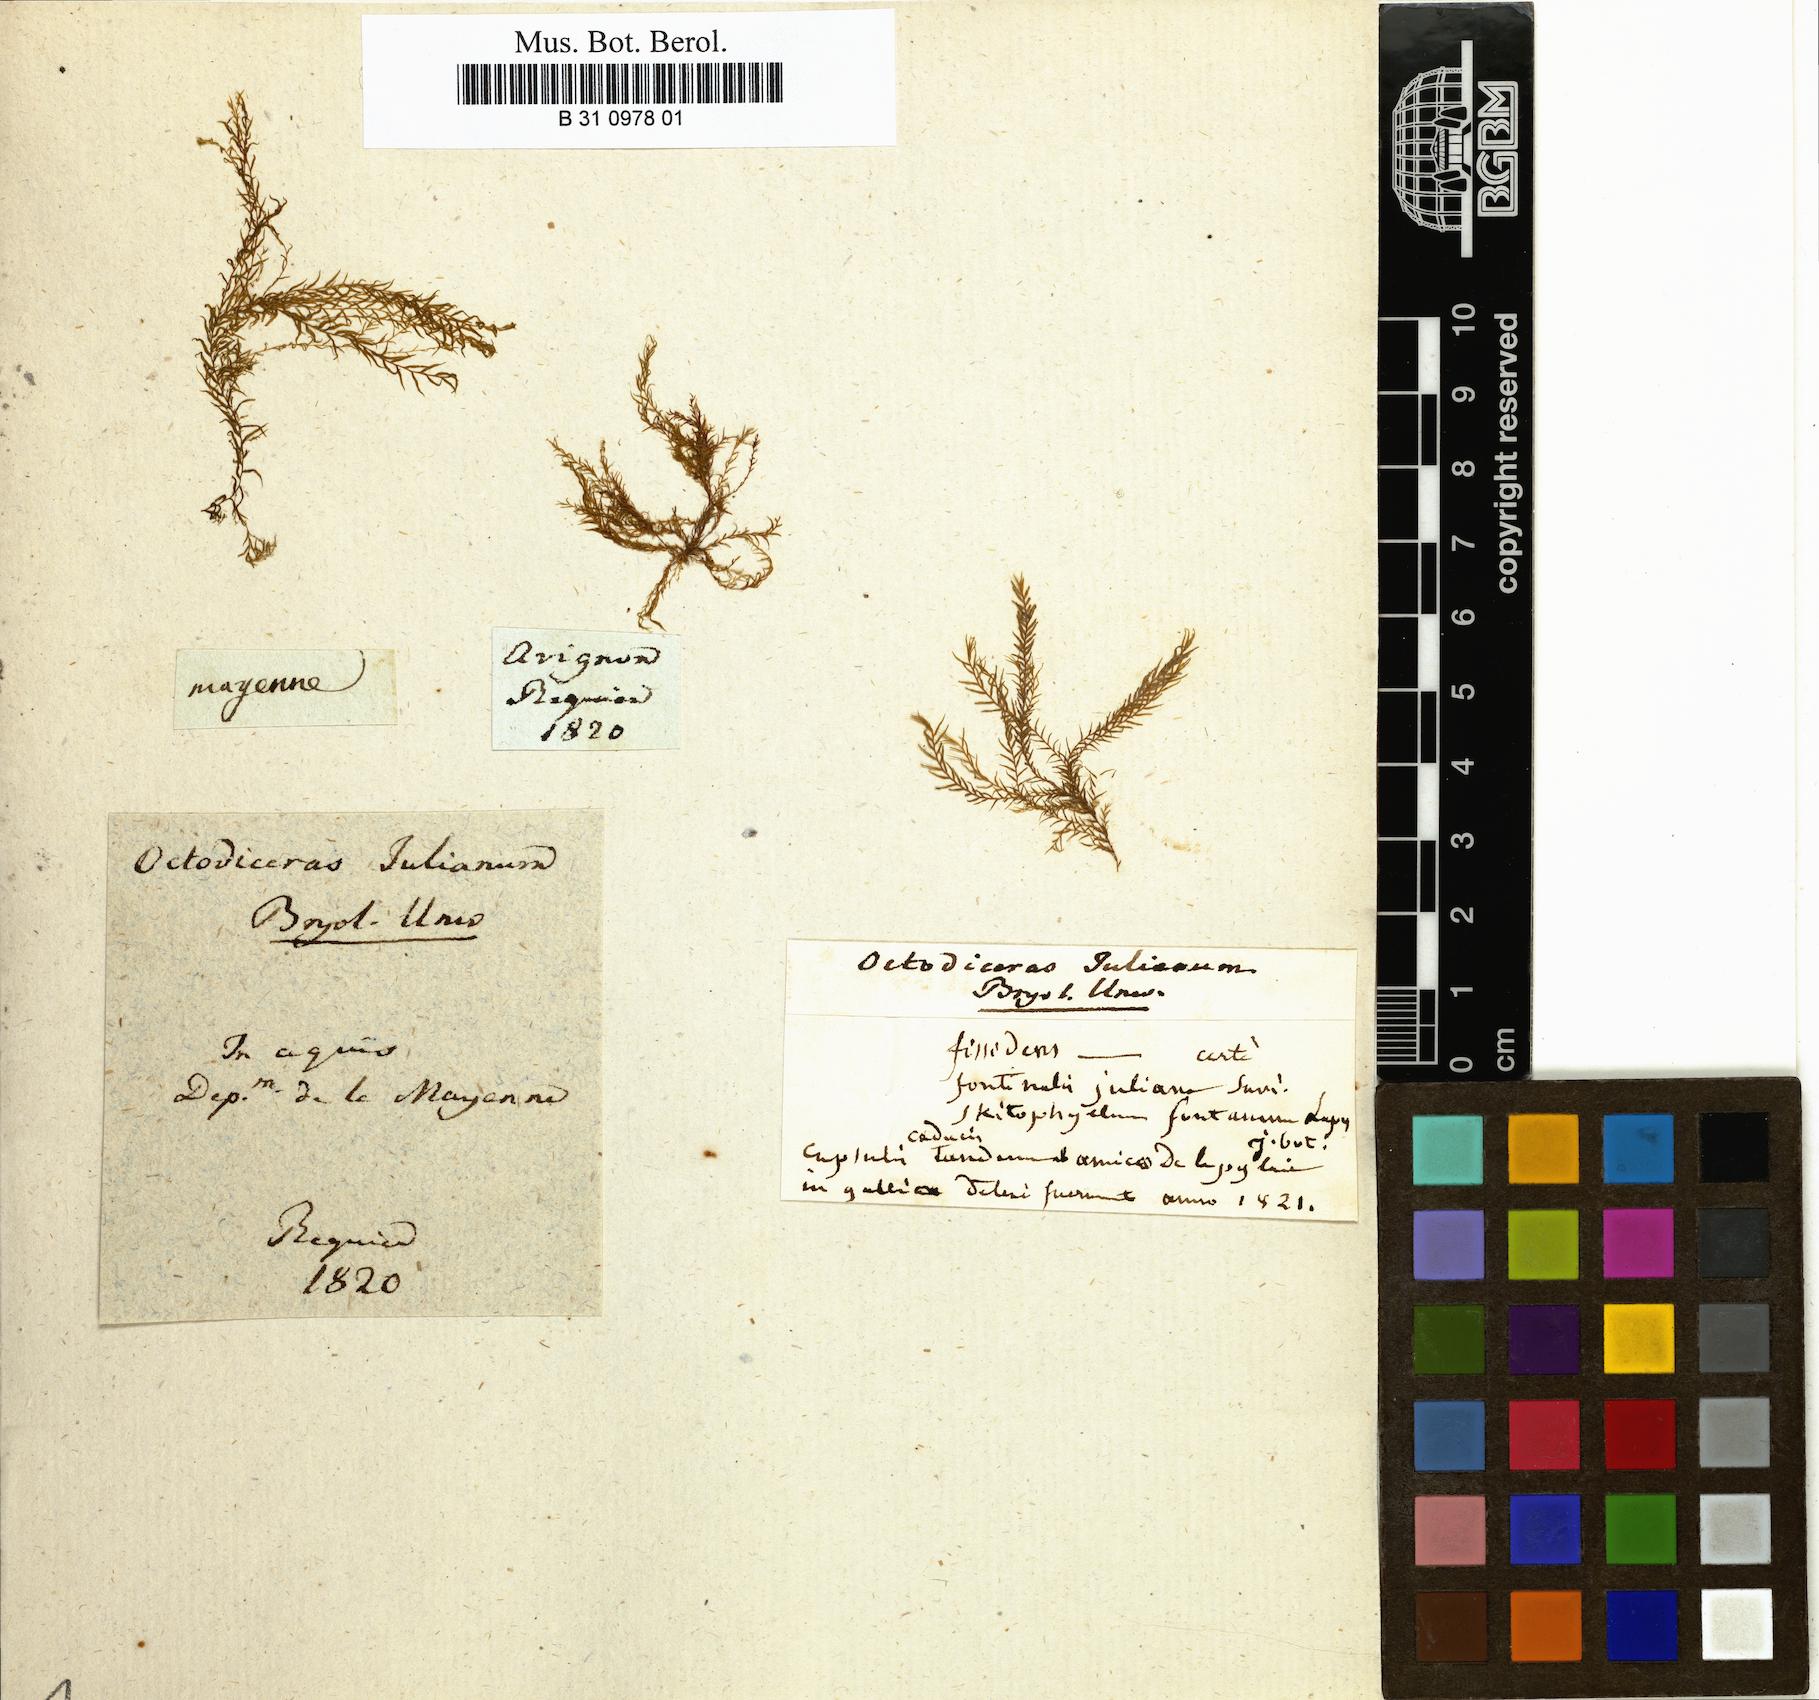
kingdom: Plantae
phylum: Bryophyta
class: Bryopsida
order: Dicranales
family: Fissidentaceae
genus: Fissidens
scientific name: Fissidens fontanus
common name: Fountain pocket-moss
